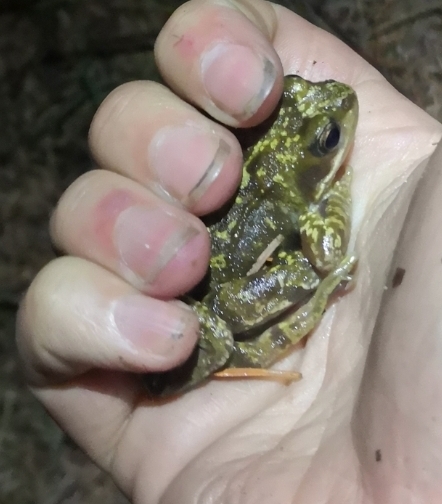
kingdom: Animalia
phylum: Chordata
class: Amphibia
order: Anura
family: Ranidae
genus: Rana
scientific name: Rana temporaria
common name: Butsnudet frø
